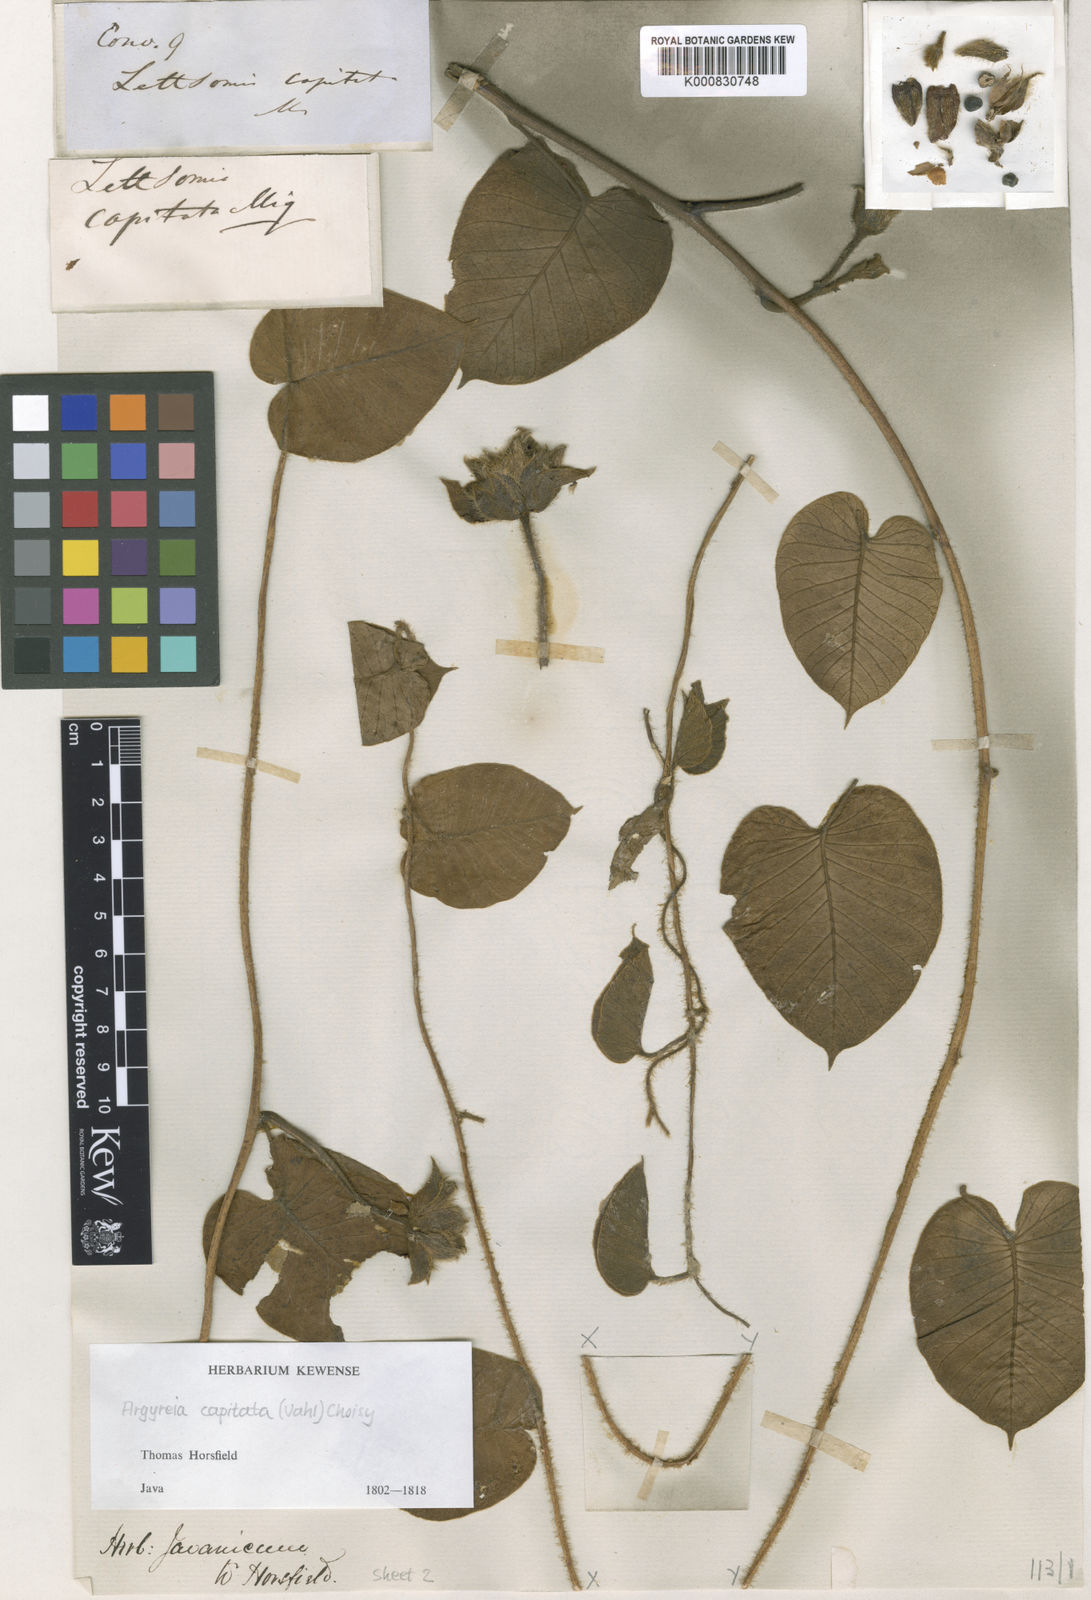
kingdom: Plantae
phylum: Tracheophyta
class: Magnoliopsida
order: Solanales
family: Convolvulaceae
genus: Argyreia
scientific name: Argyreia capitiformis
